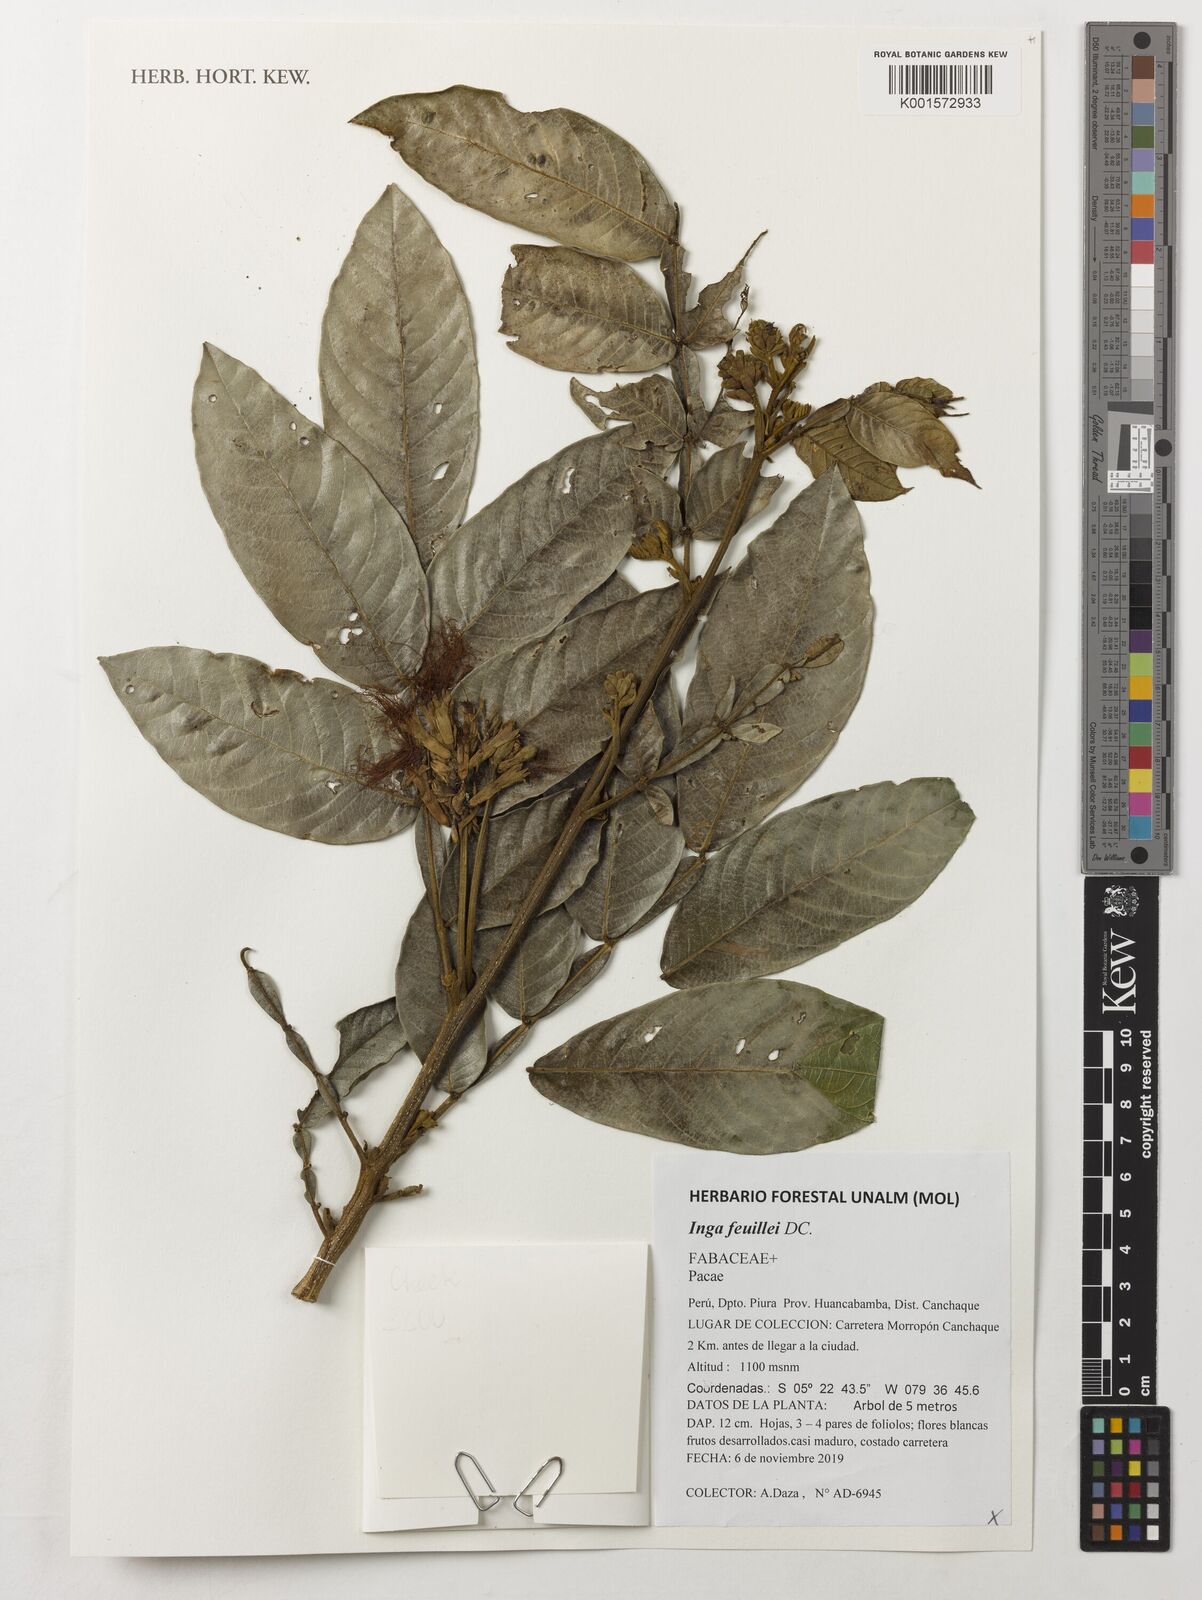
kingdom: Plantae
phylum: Tracheophyta
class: Magnoliopsida
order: Fabales
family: Fabaceae
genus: Inga
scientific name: Inga feuillei
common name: Ice cream bean
